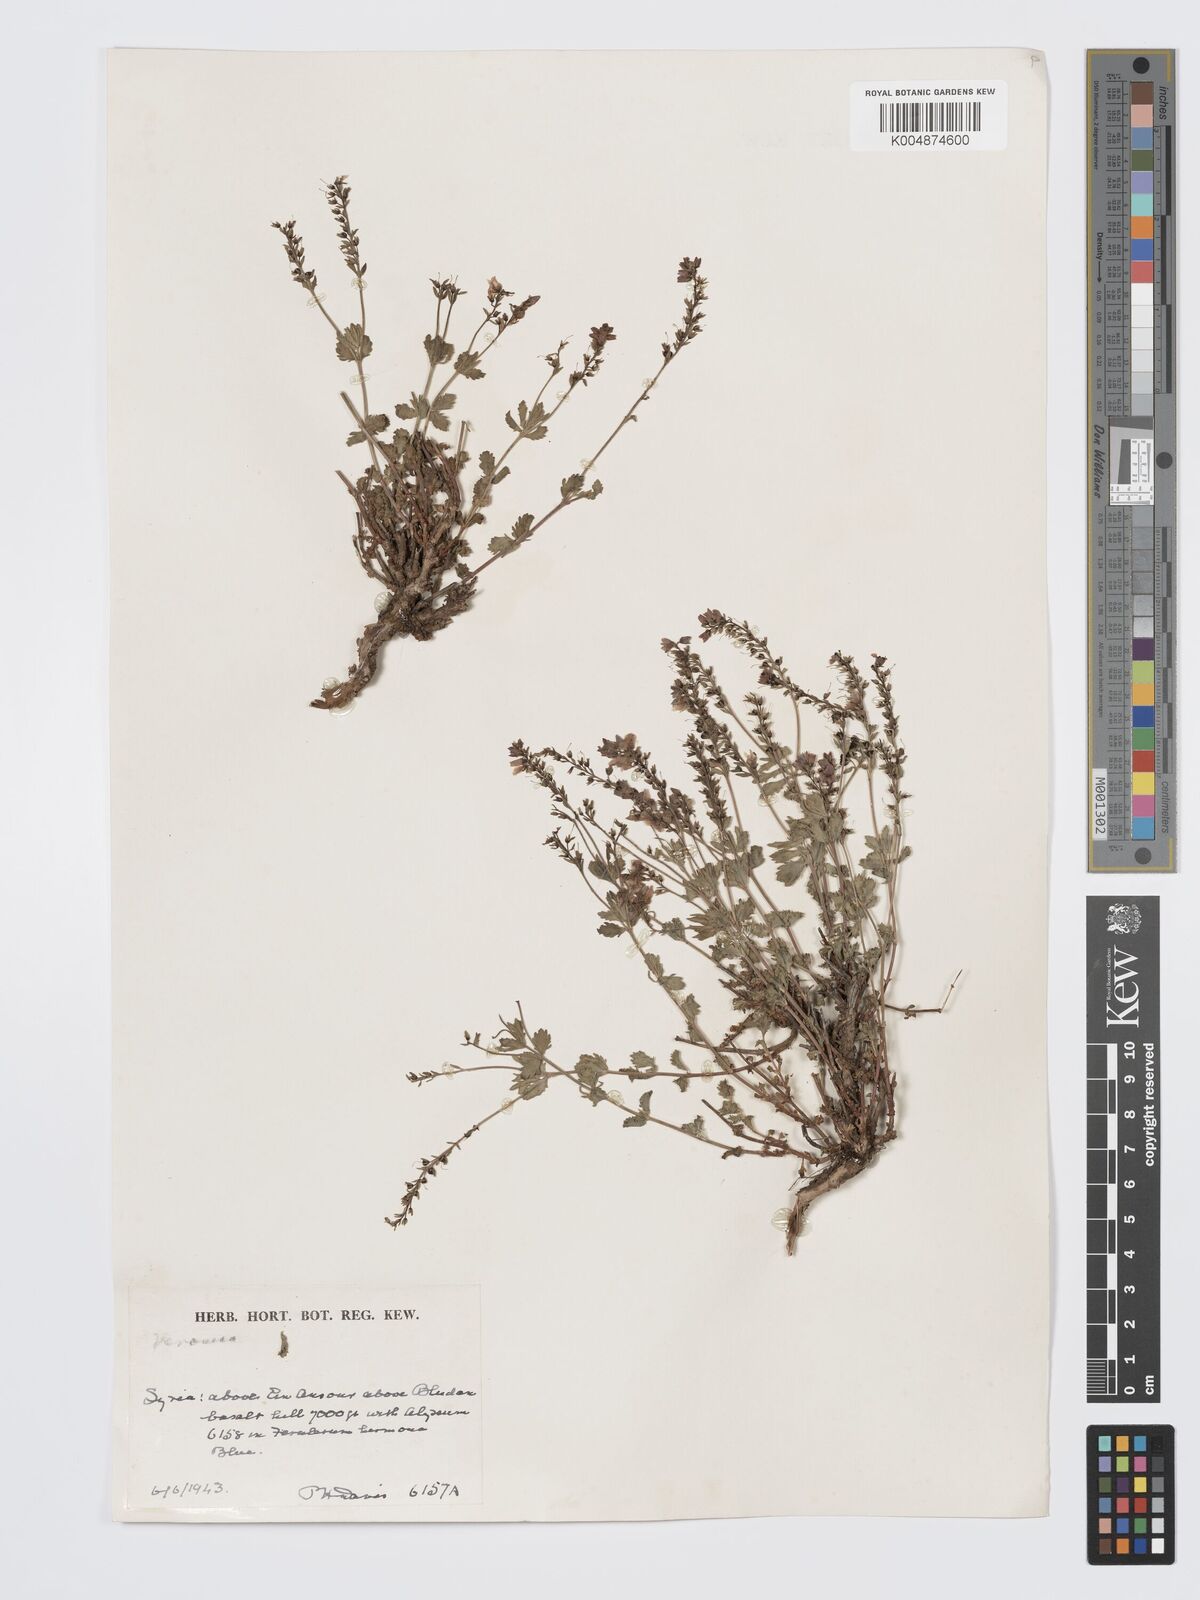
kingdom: Plantae
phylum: Tracheophyta
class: Magnoliopsida
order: Lamiales
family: Plantaginaceae
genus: Veronica
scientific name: Veronica
